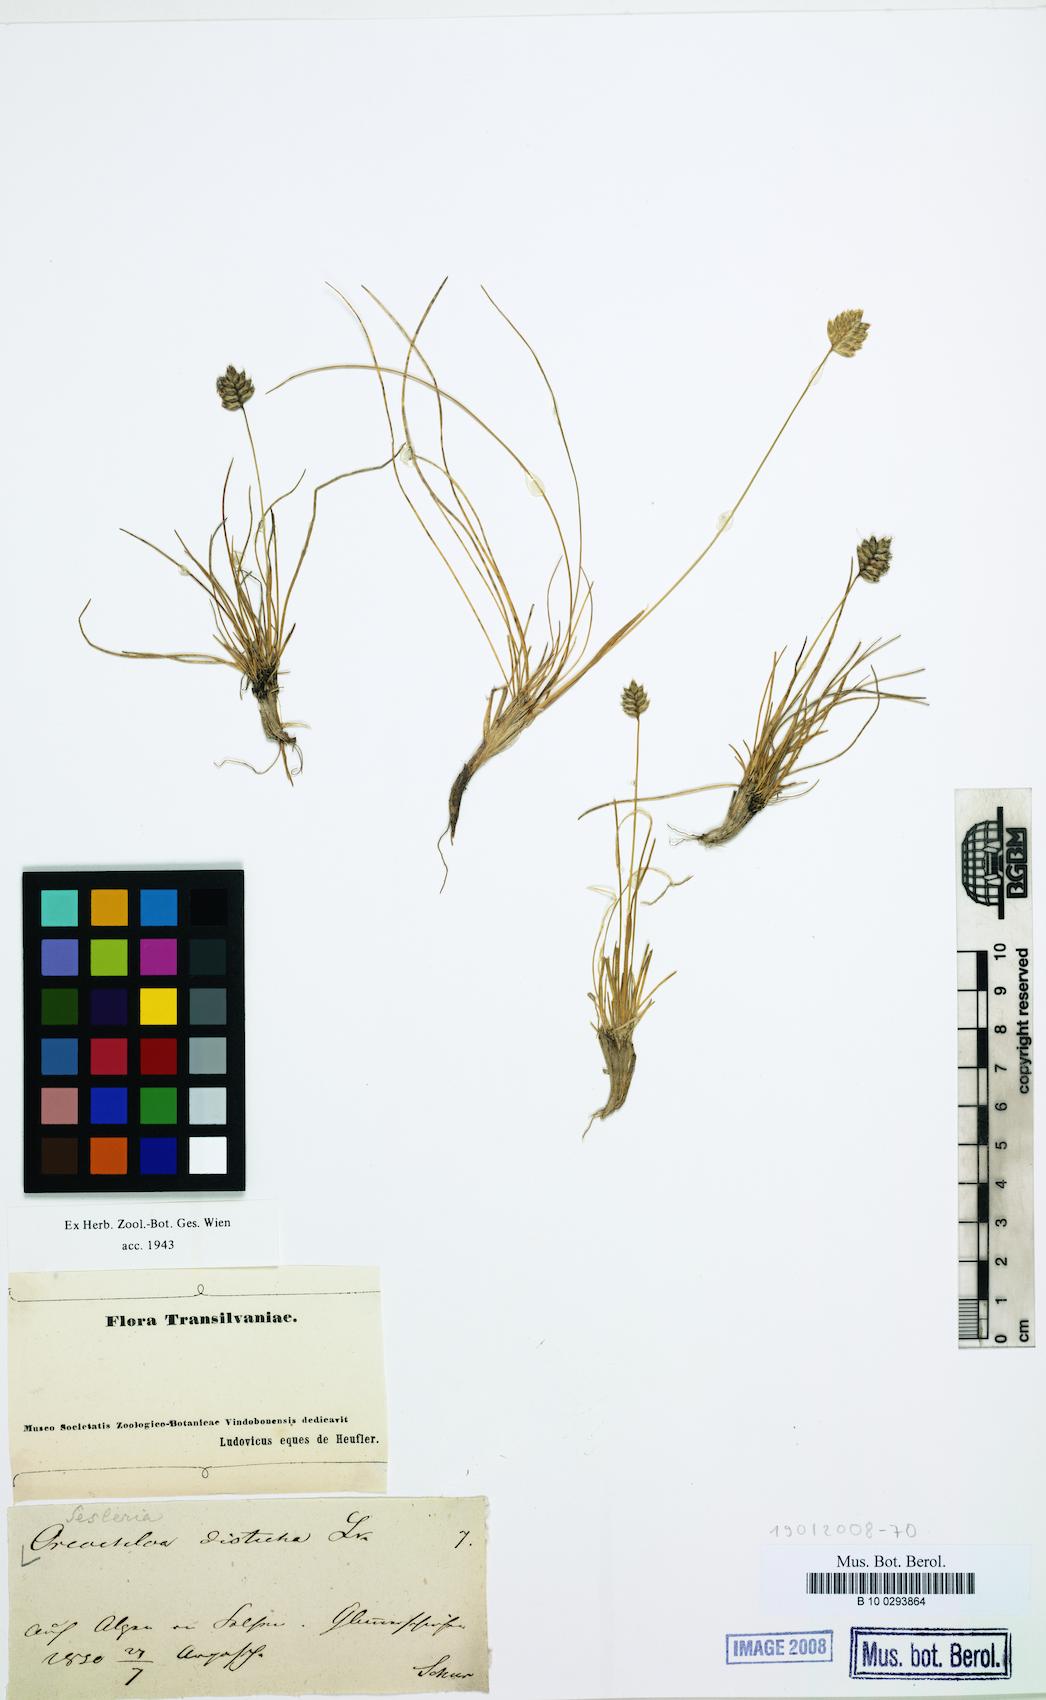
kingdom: Plantae
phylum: Tracheophyta
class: Liliopsida
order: Poales
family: Poaceae
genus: Oreochloa
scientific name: Oreochloa disticha
